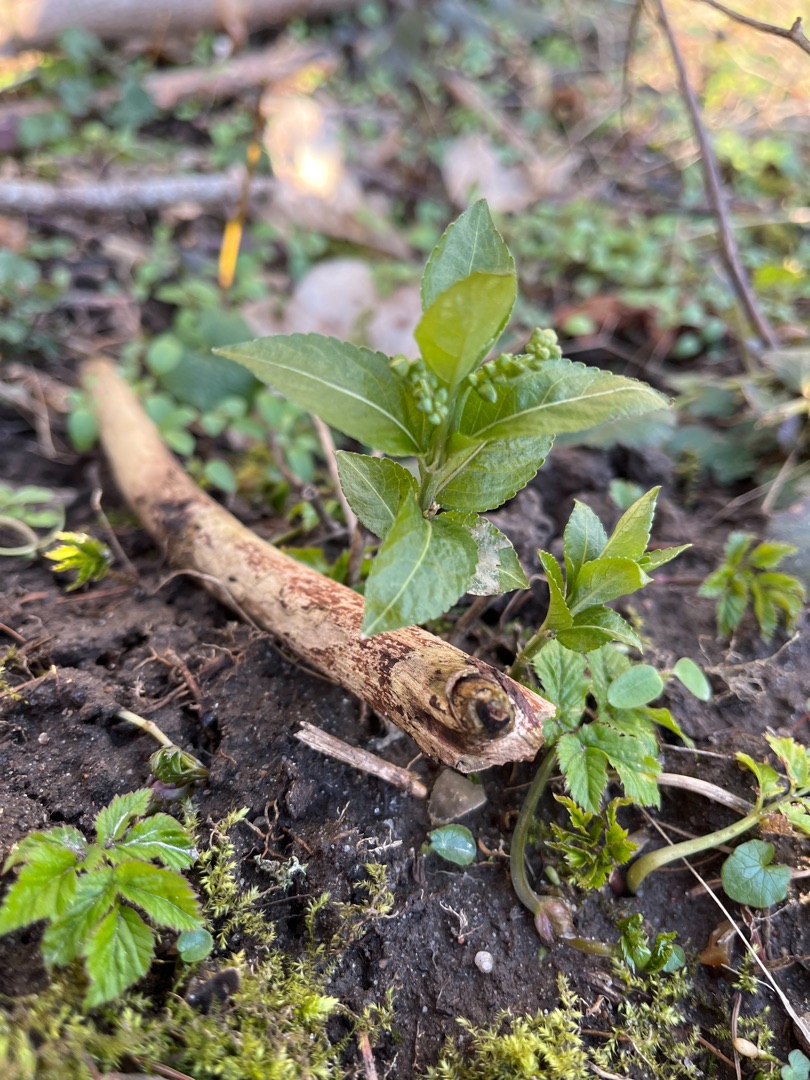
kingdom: Plantae
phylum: Tracheophyta
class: Magnoliopsida
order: Malpighiales
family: Euphorbiaceae
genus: Mercurialis
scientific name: Mercurialis perennis
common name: Almindelig bingelurt
